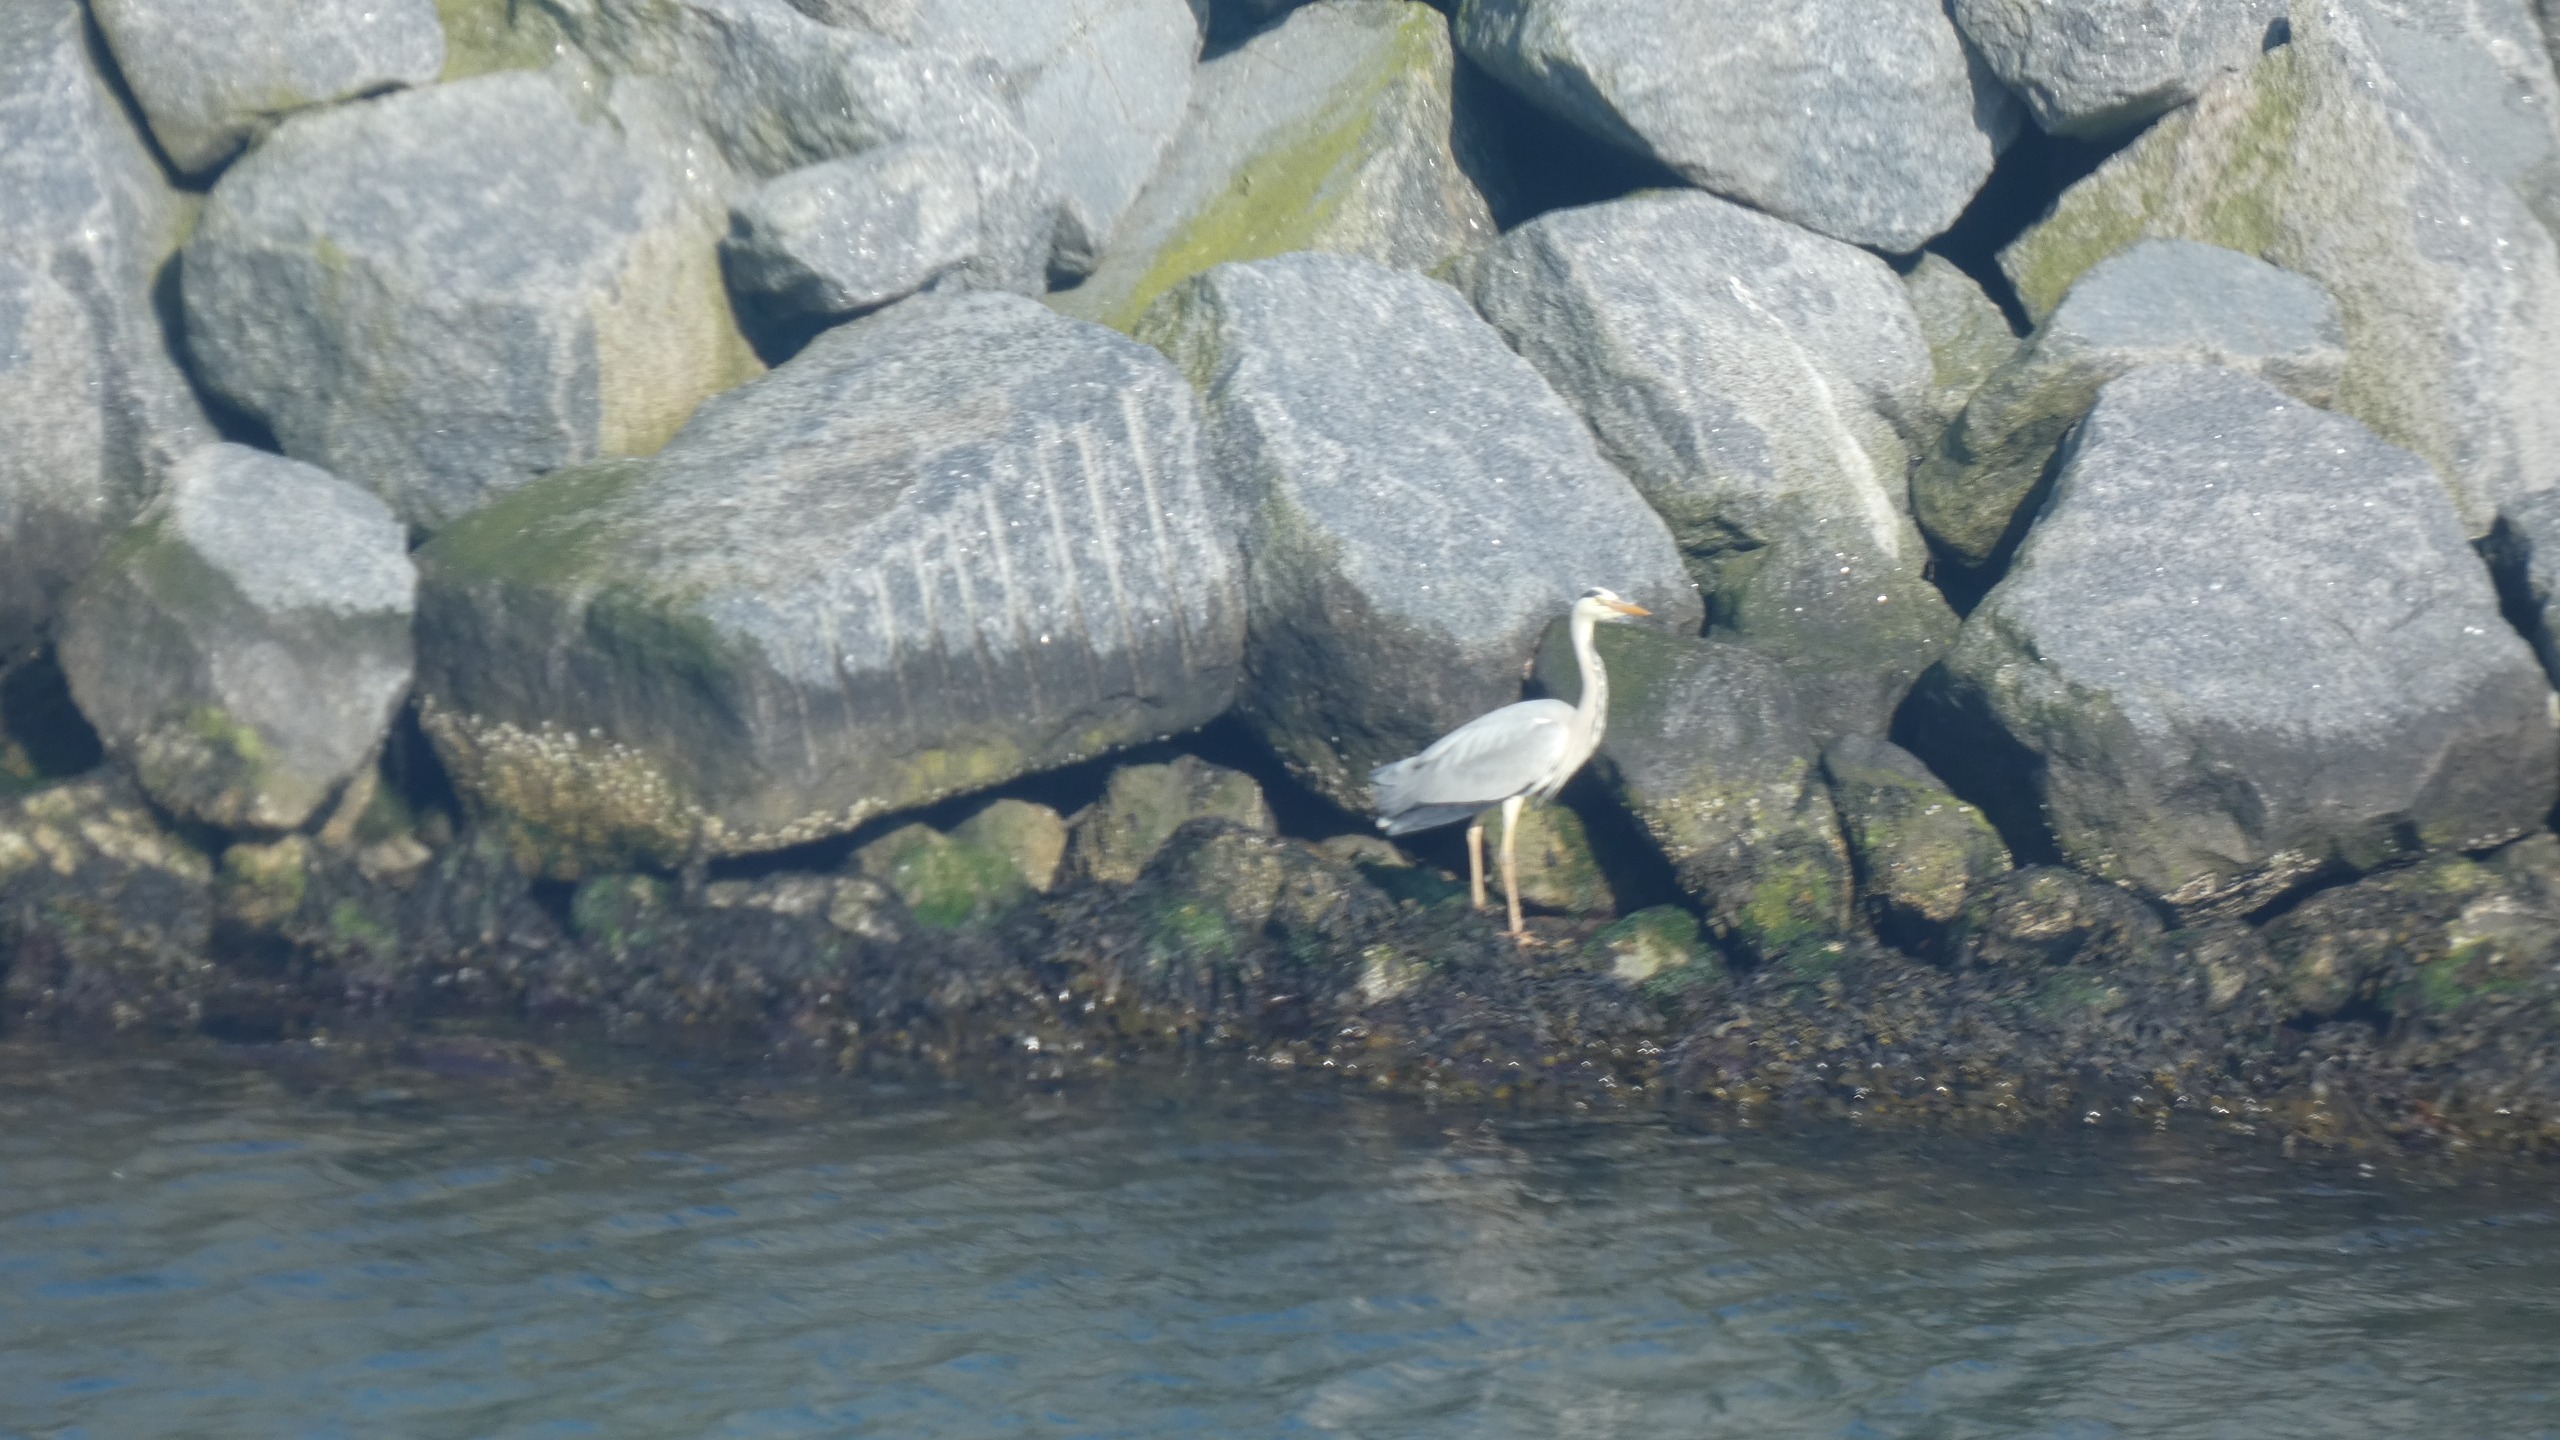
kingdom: Animalia
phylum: Chordata
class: Aves
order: Pelecaniformes
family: Ardeidae
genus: Ardea
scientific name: Ardea cinerea
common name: Fiskehejre
